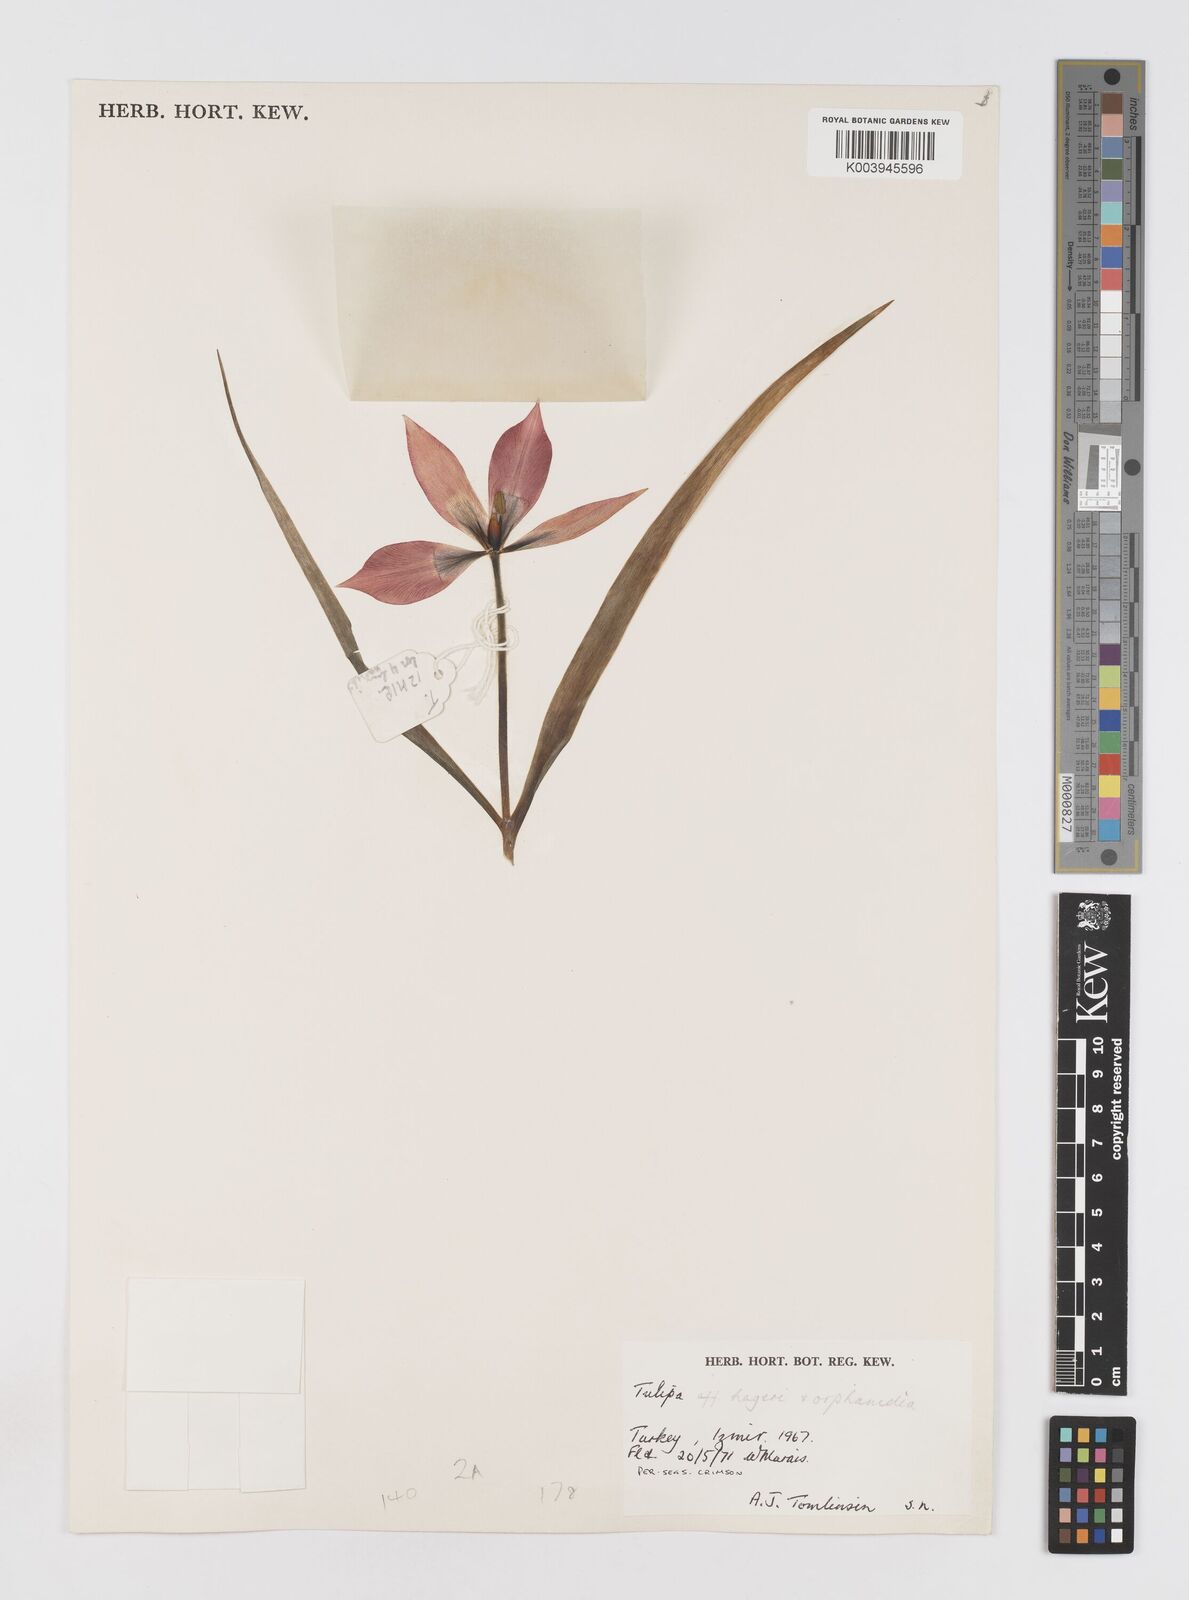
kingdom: Plantae
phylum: Tracheophyta
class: Liliopsida
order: Liliales
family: Liliaceae
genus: Tulipa
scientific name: Tulipa orphanidea
